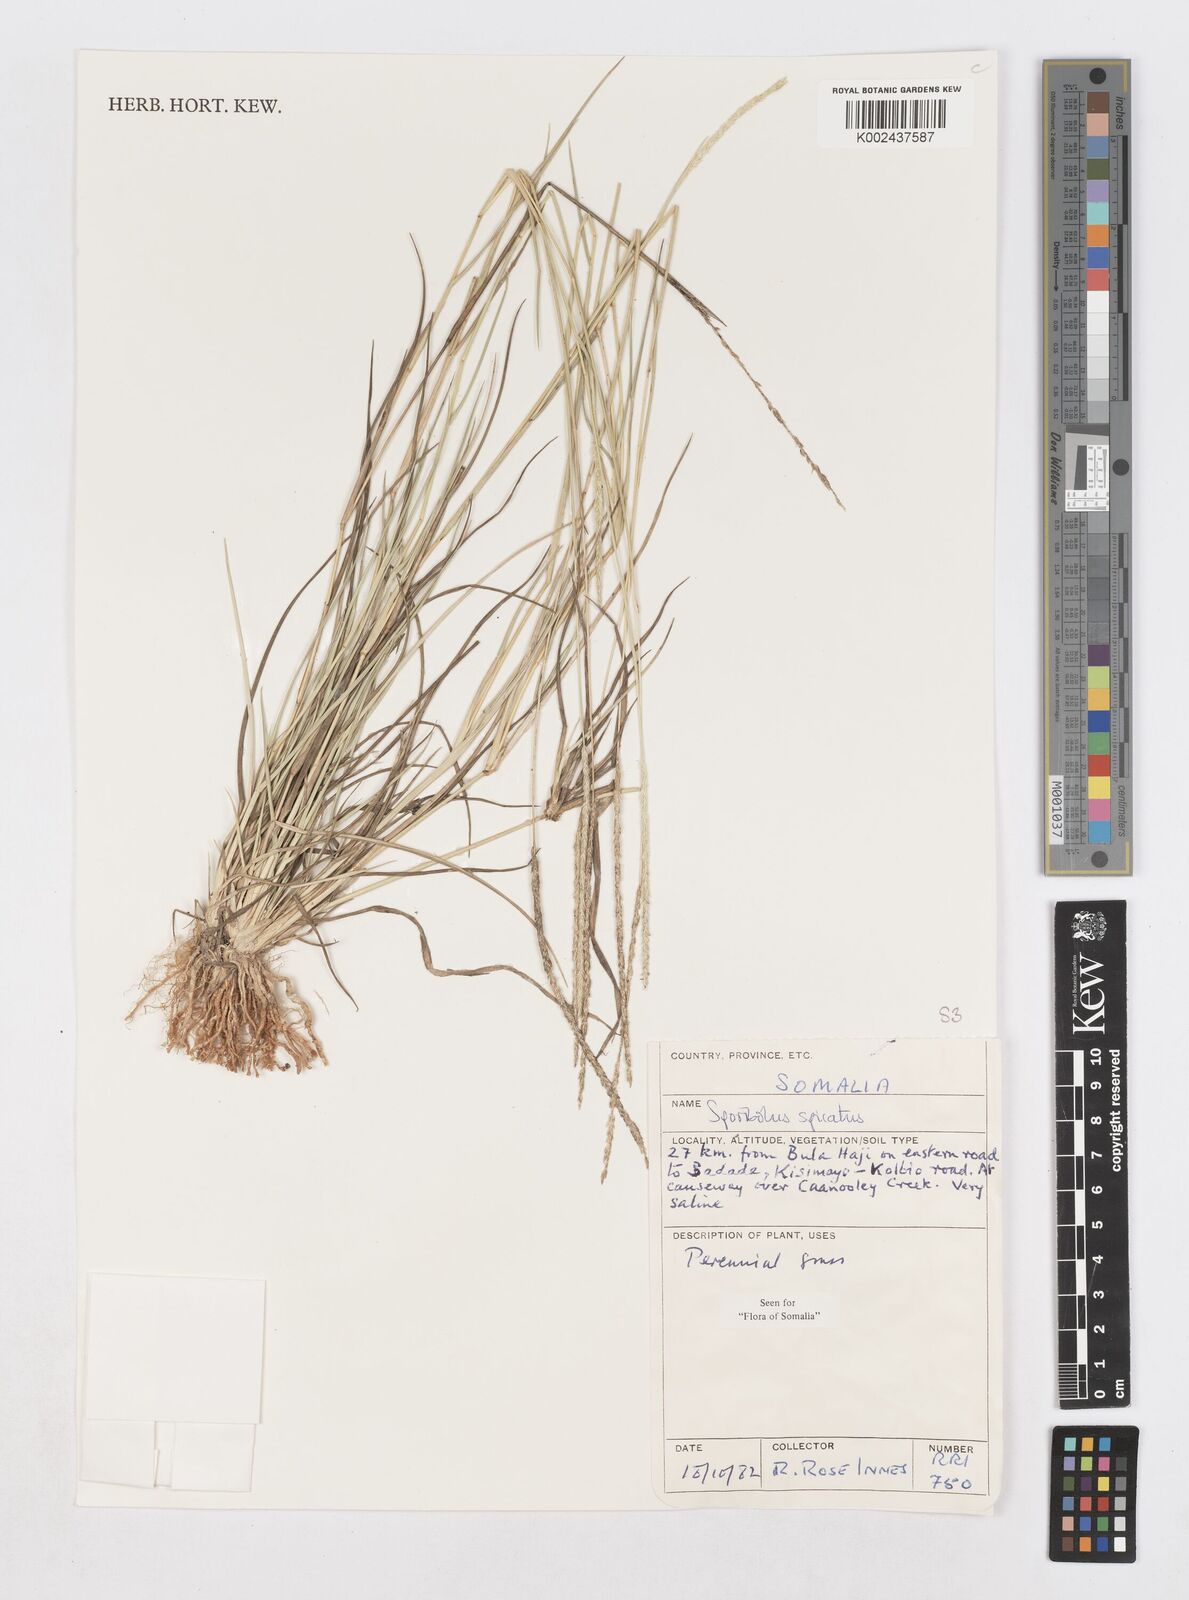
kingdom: Plantae
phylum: Tracheophyta
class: Liliopsida
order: Poales
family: Poaceae
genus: Sporobolus
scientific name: Sporobolus spicatus
